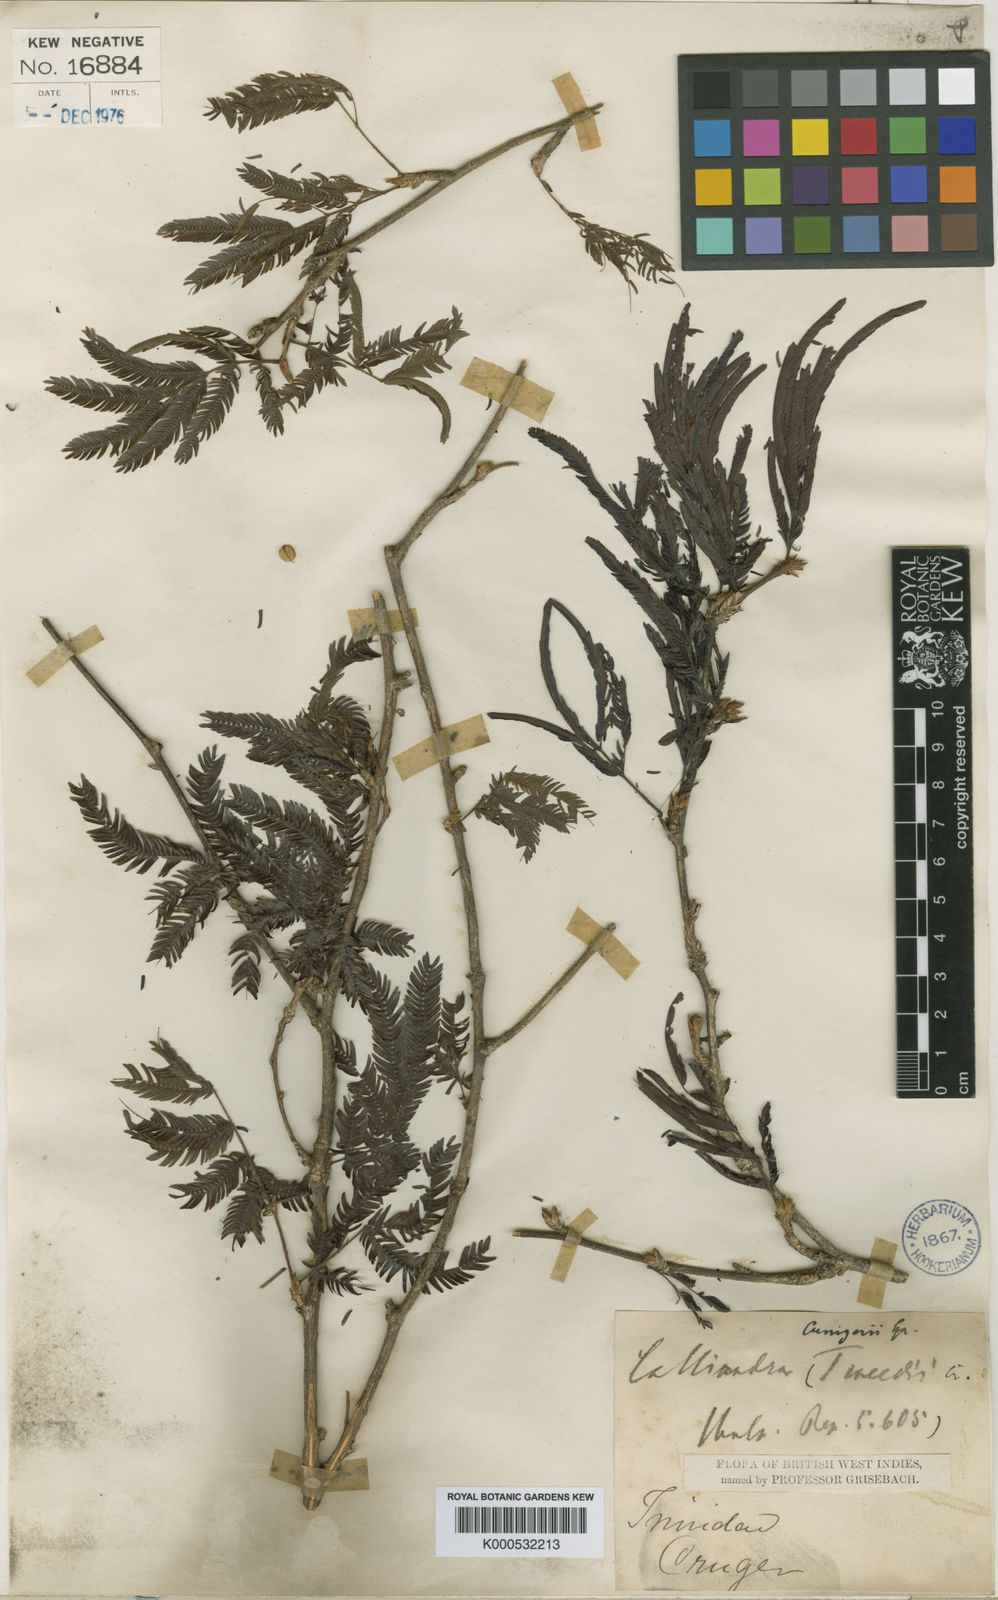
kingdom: Plantae
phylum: Tracheophyta
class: Magnoliopsida
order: Fabales
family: Fabaceae
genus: Calliandra
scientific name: Calliandra cruegeri
